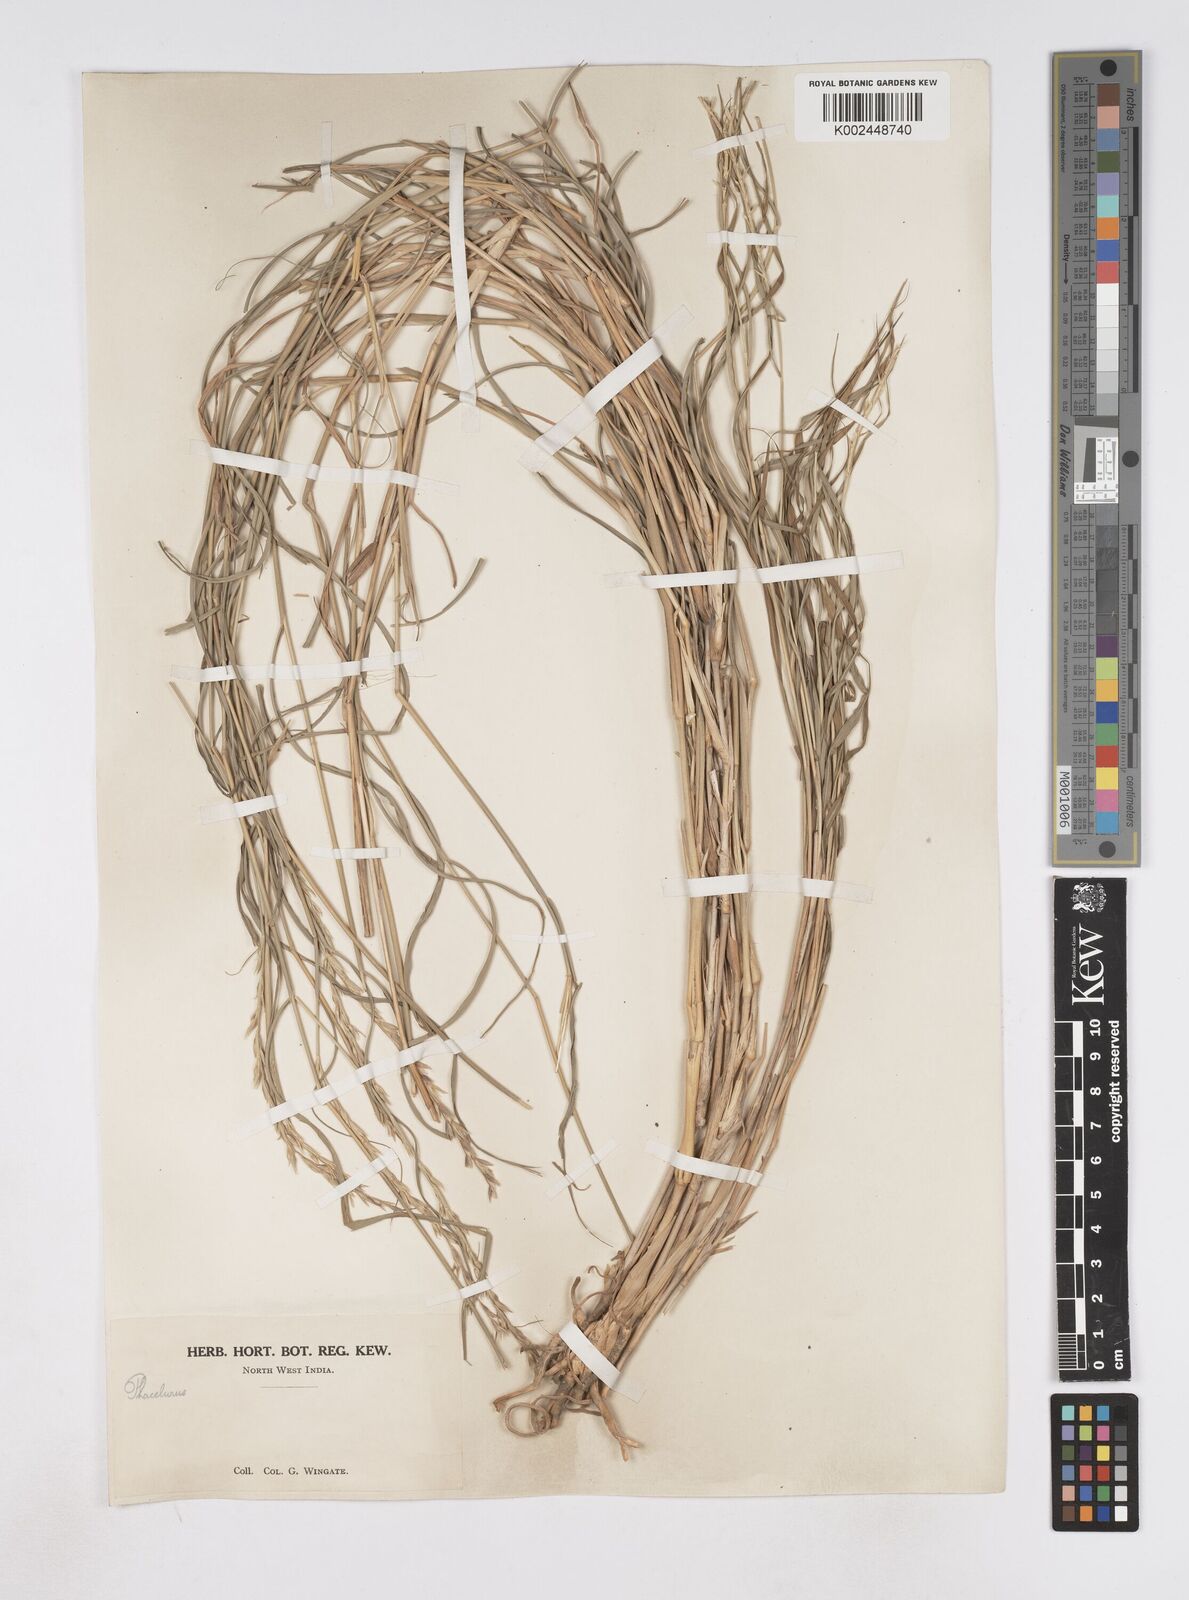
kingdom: Plantae
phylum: Tracheophyta
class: Liliopsida
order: Poales
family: Poaceae
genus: Phacelurus
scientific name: Phacelurus speciosus
